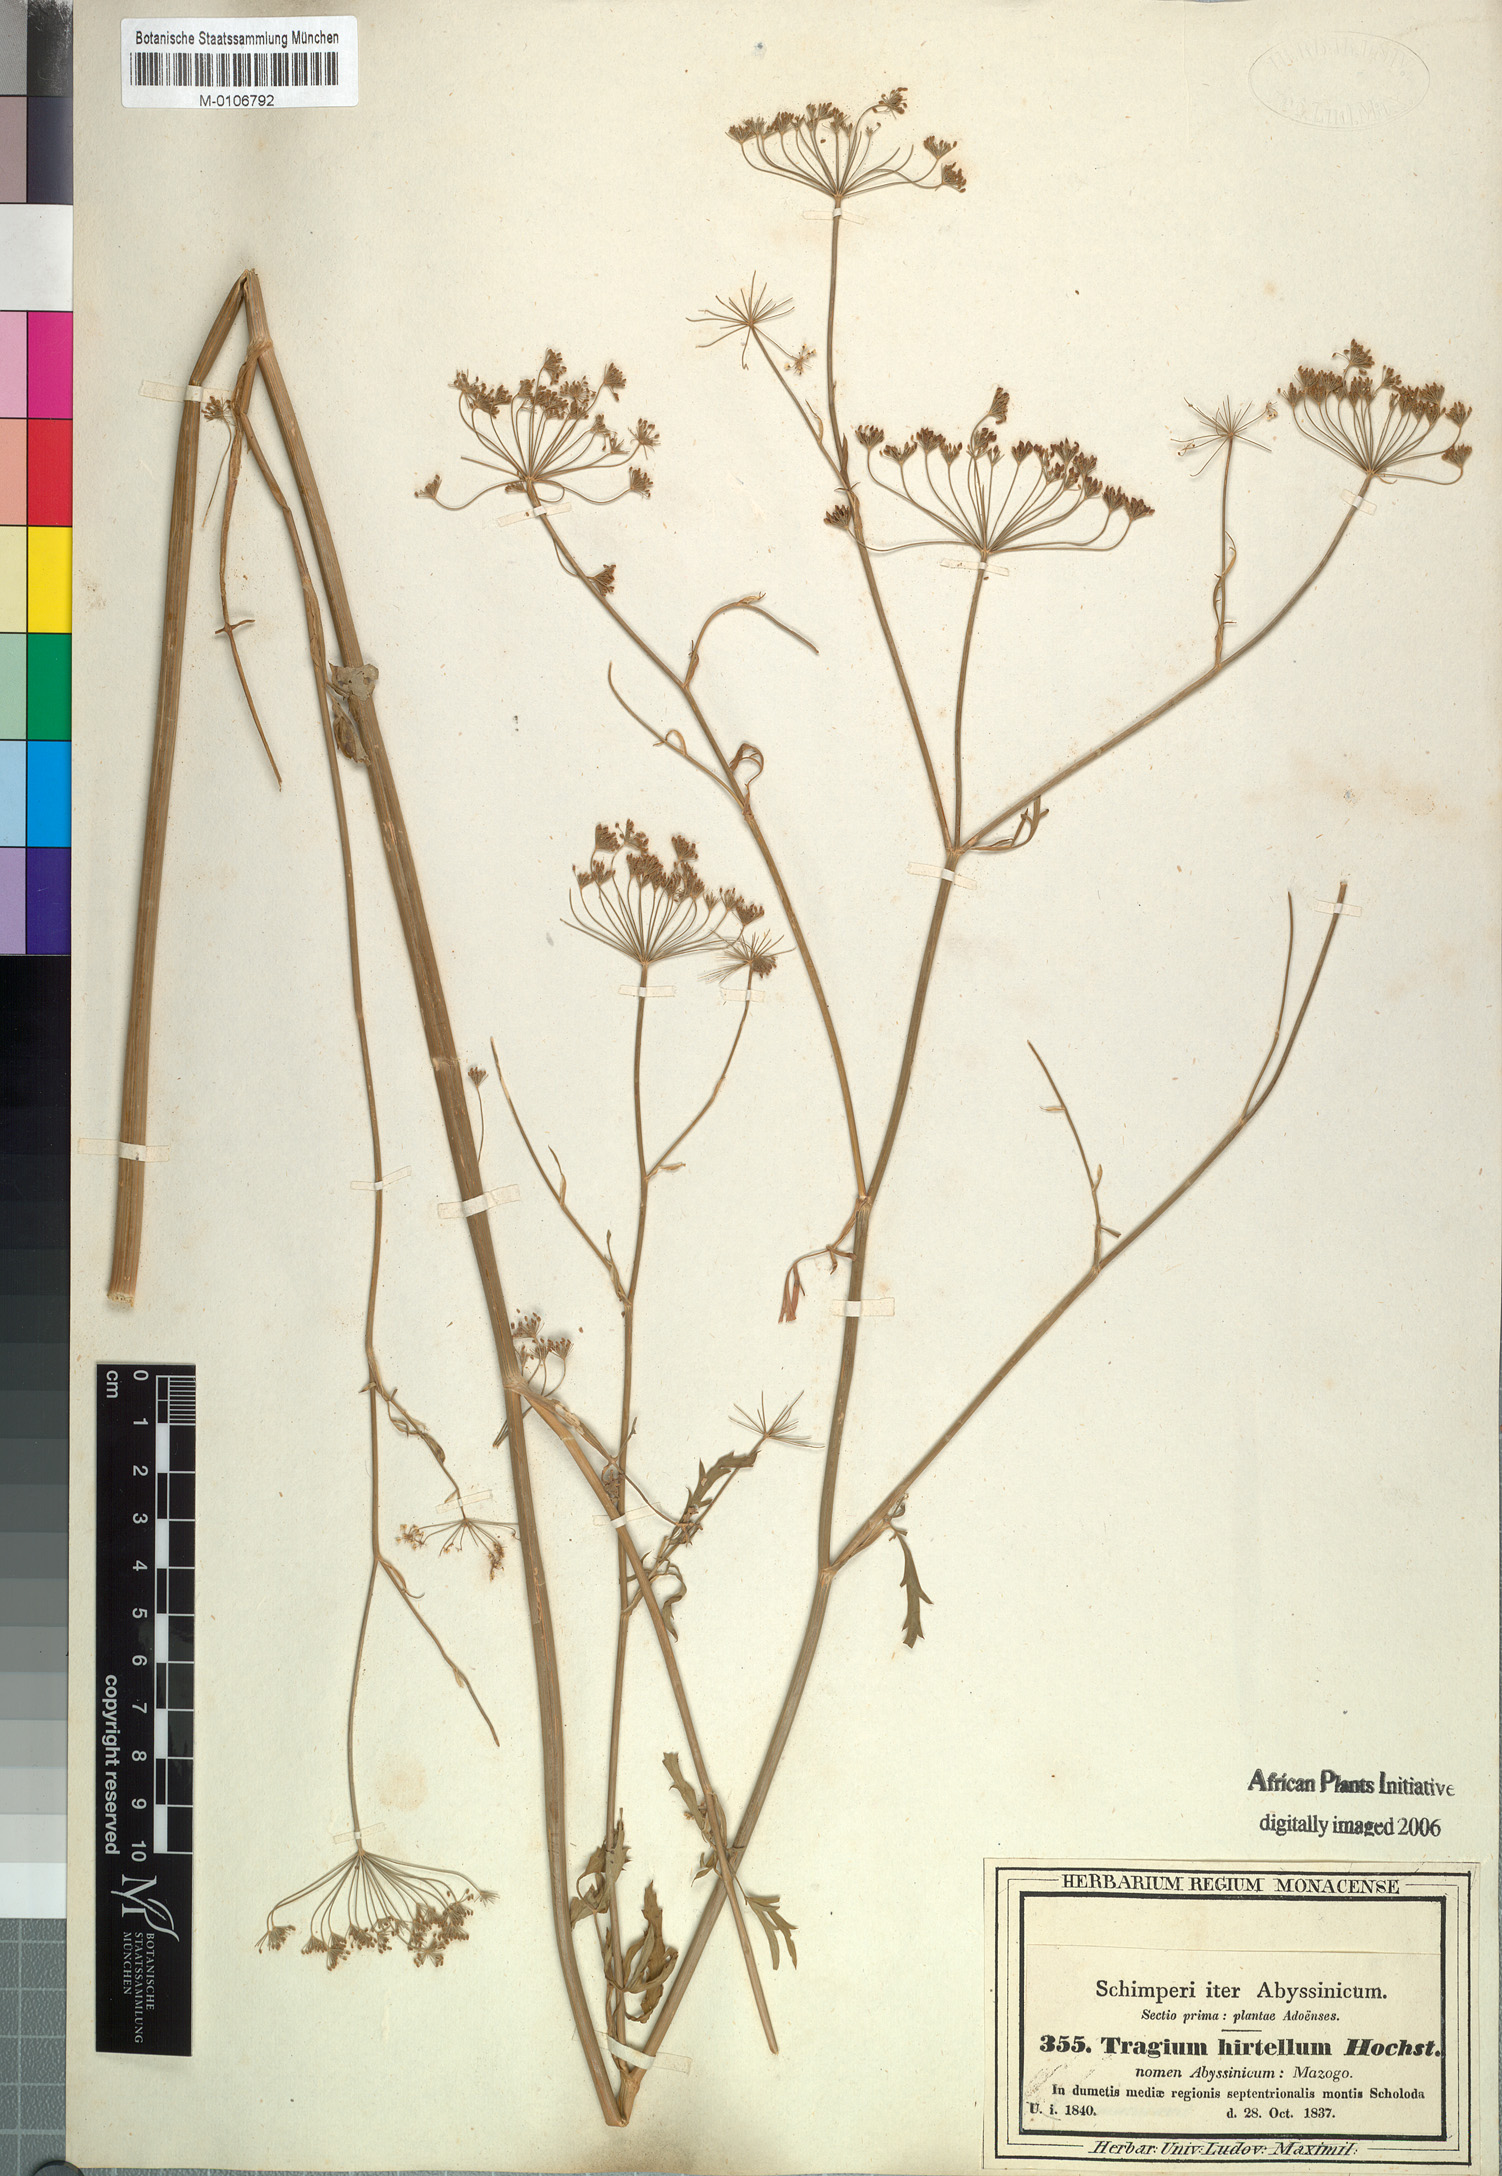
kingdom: Plantae
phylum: Tracheophyta
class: Magnoliopsida
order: Apiales
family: Apiaceae
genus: Pimpinella
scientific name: Pimpinella hirtella
